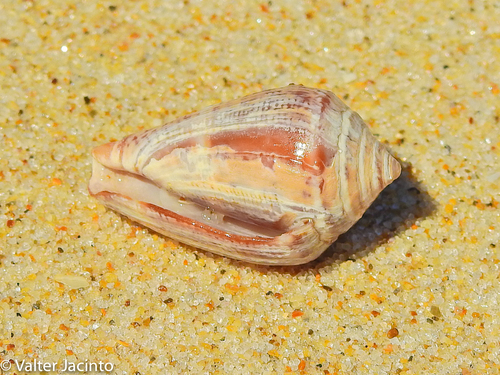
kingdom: Animalia
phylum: Mollusca
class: Gastropoda
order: Neogastropoda
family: Conidae
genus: Conus
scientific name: Conus ventricosus
